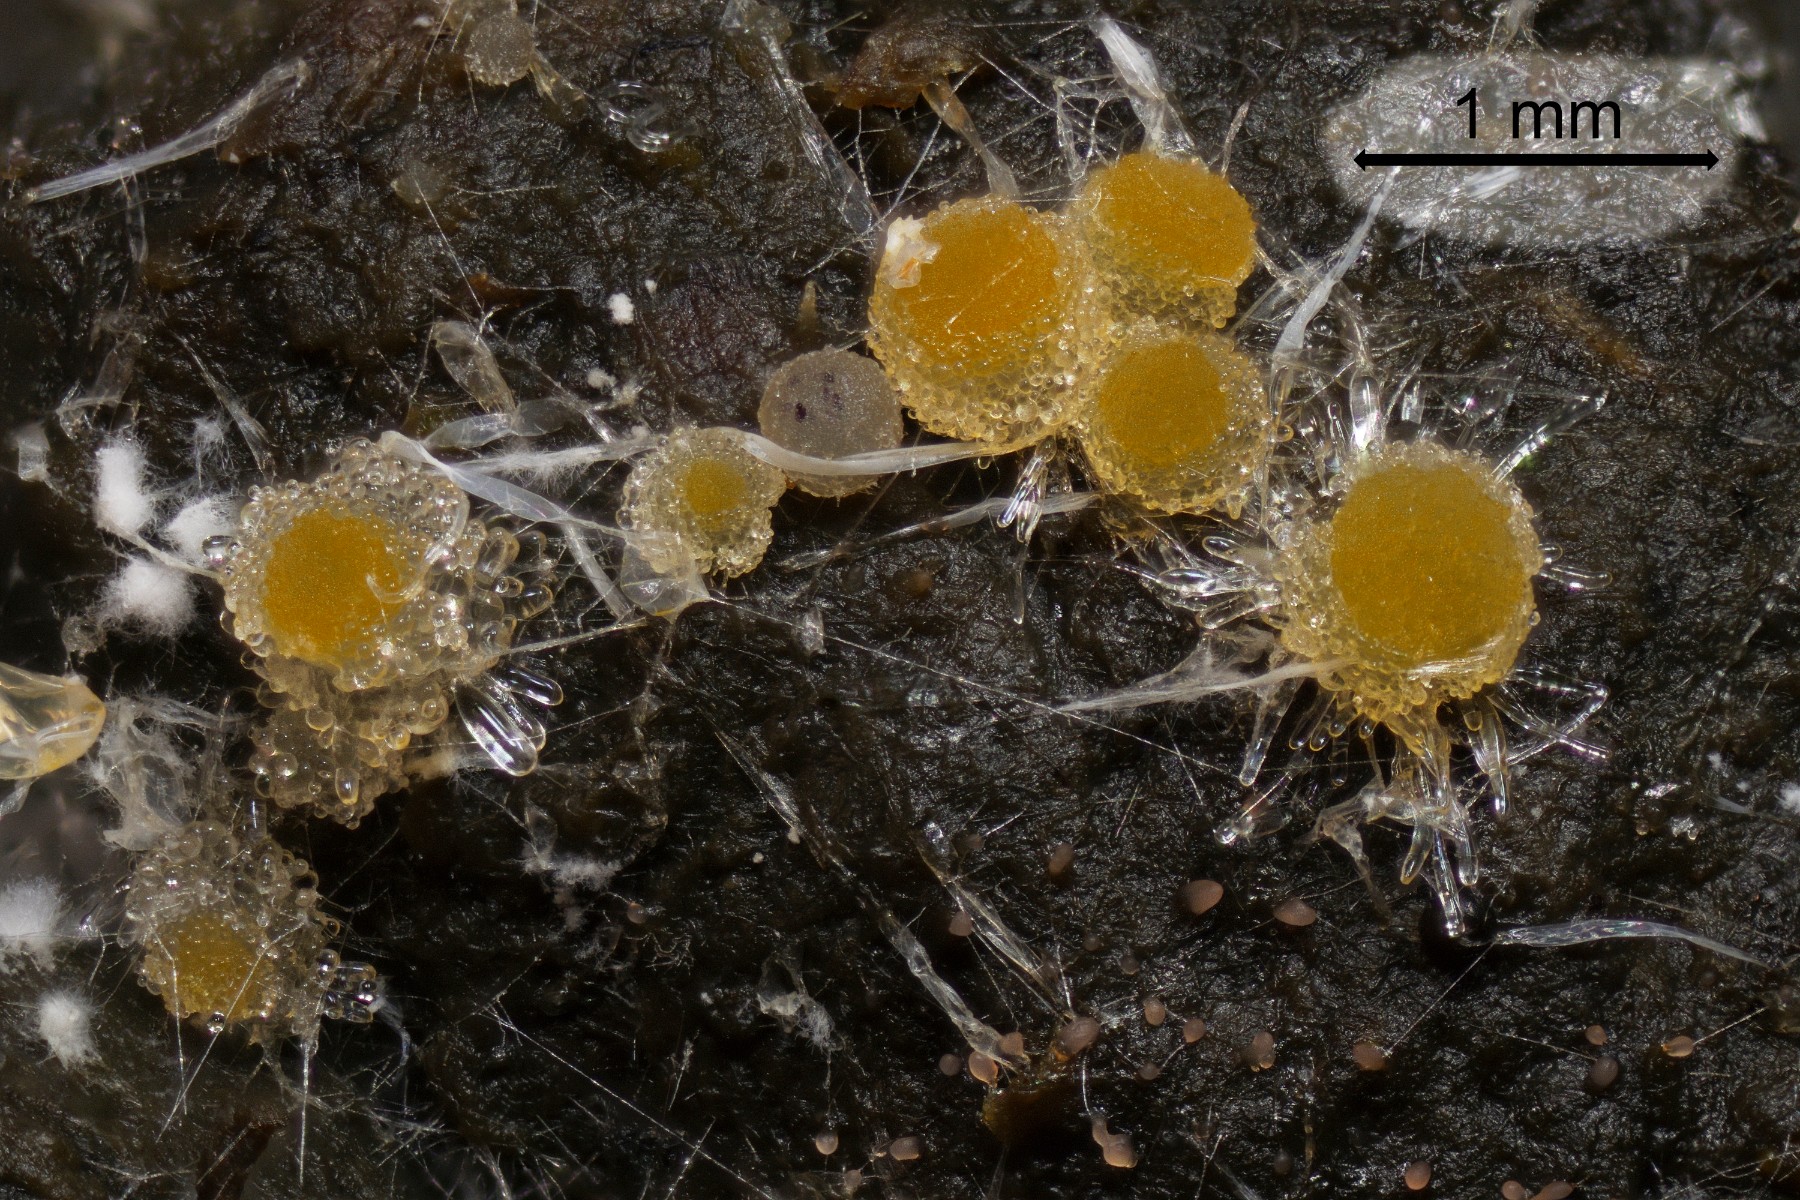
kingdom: Fungi
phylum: Ascomycota
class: Pezizomycetes
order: Pezizales
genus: Coprotus
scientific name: Coprotus arduennensis
